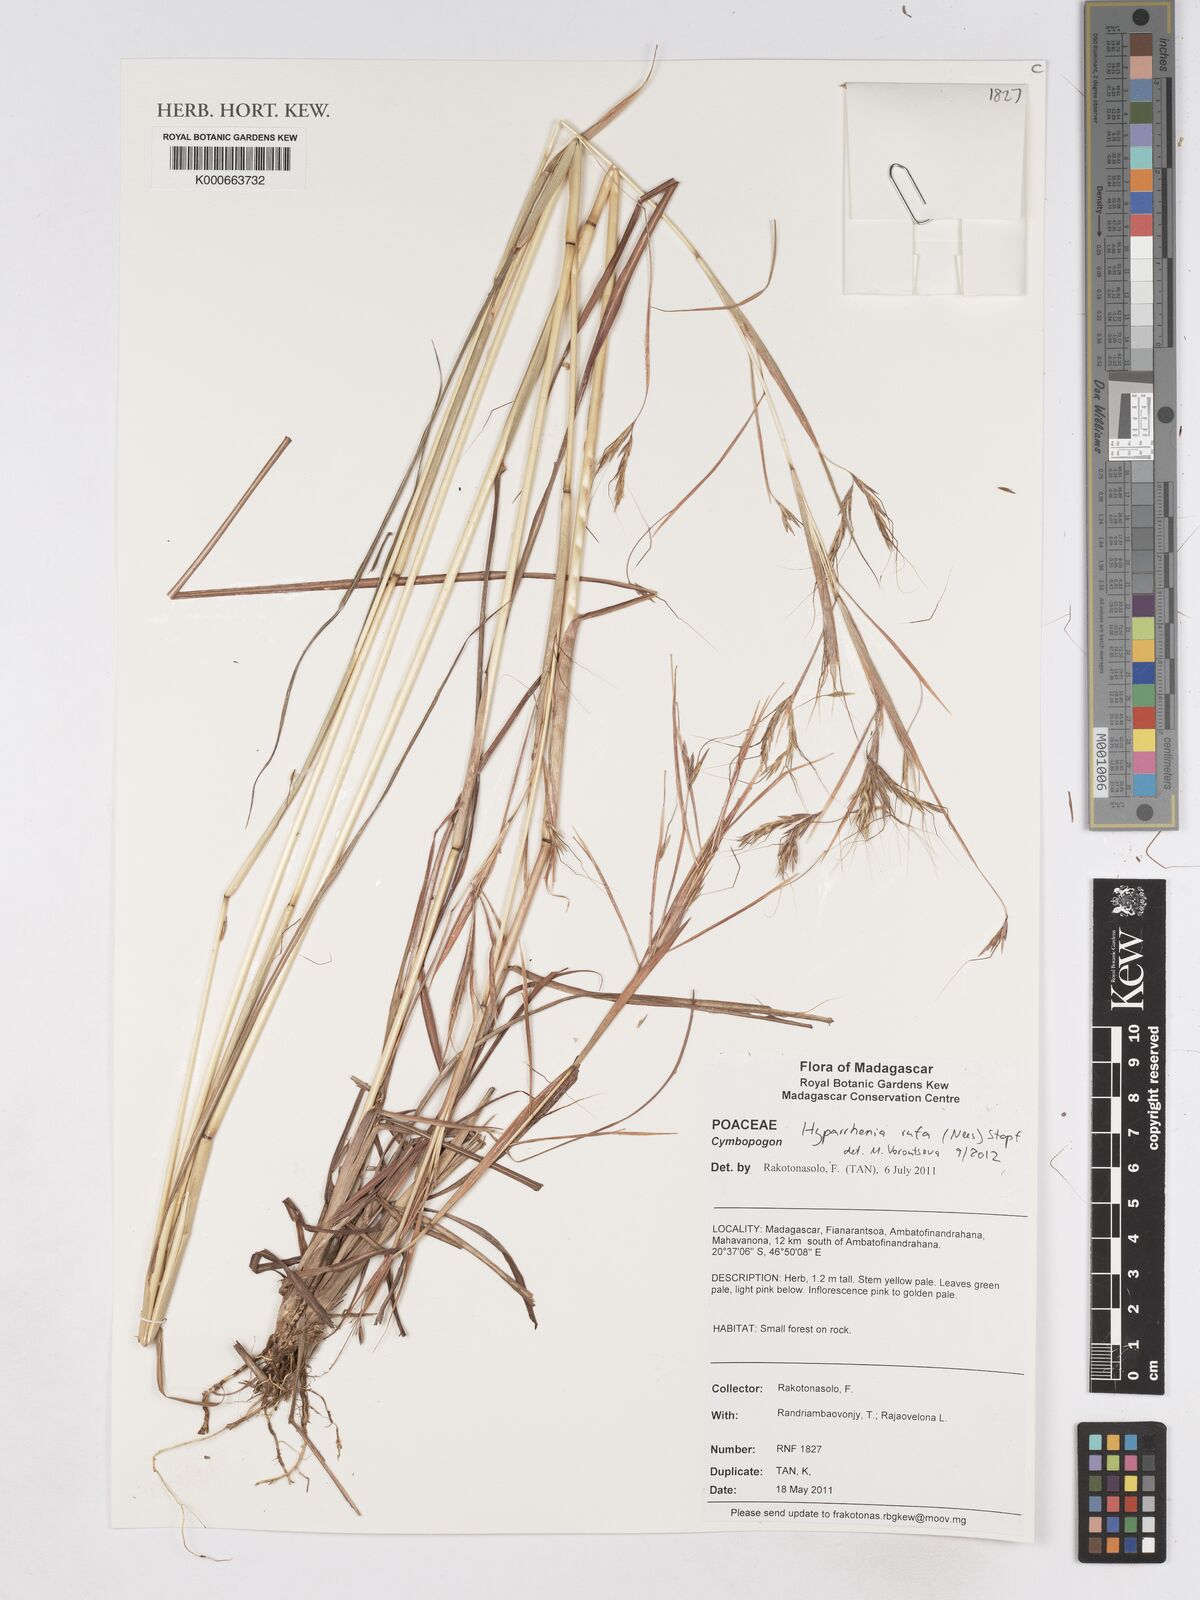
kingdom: Plantae
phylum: Tracheophyta
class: Liliopsida
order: Poales
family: Poaceae
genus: Hyparrhenia
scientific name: Hyparrhenia rufa
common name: Jaraguagrass
